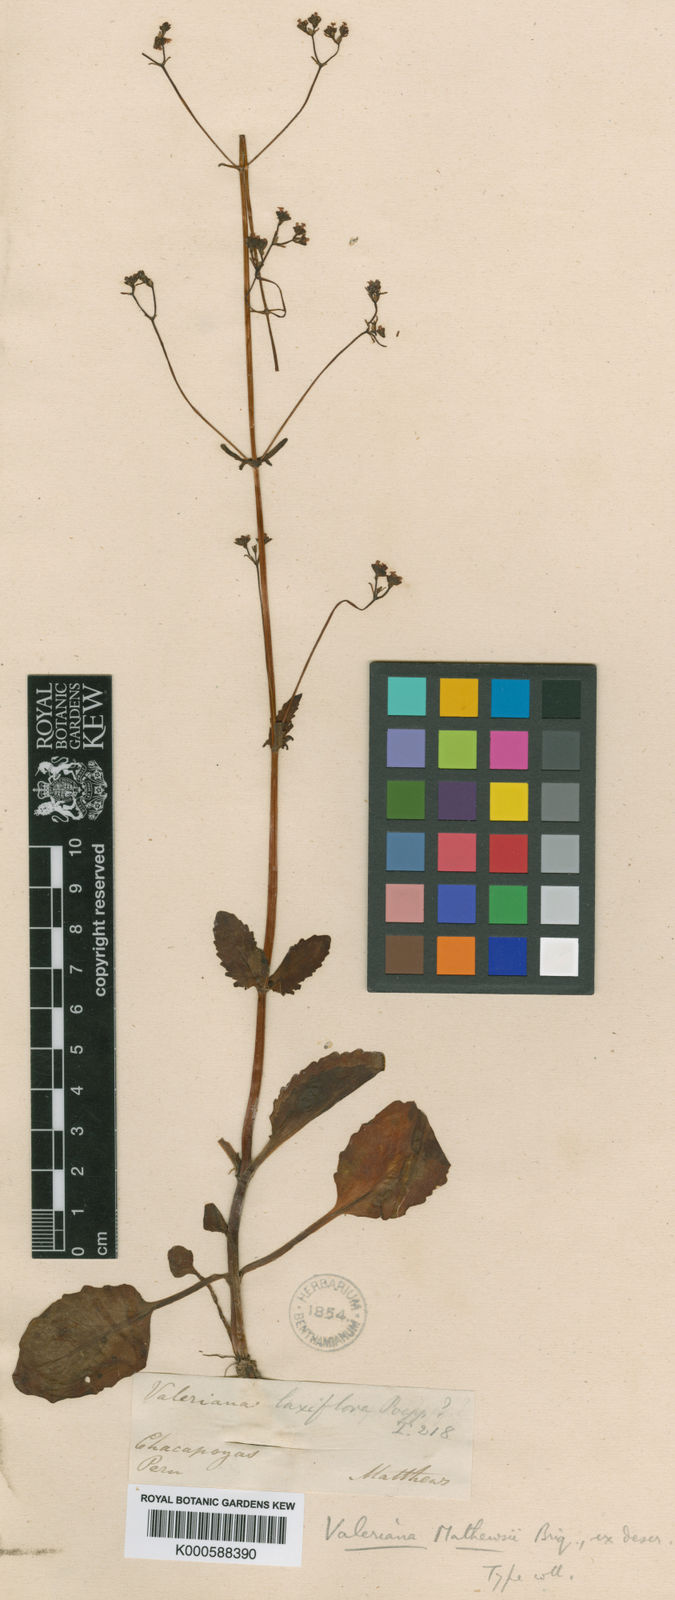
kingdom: Plantae
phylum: Tracheophyta
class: Magnoliopsida
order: Dipsacales
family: Caprifoliaceae
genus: Valeriana
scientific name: Valeriana humboldtii
